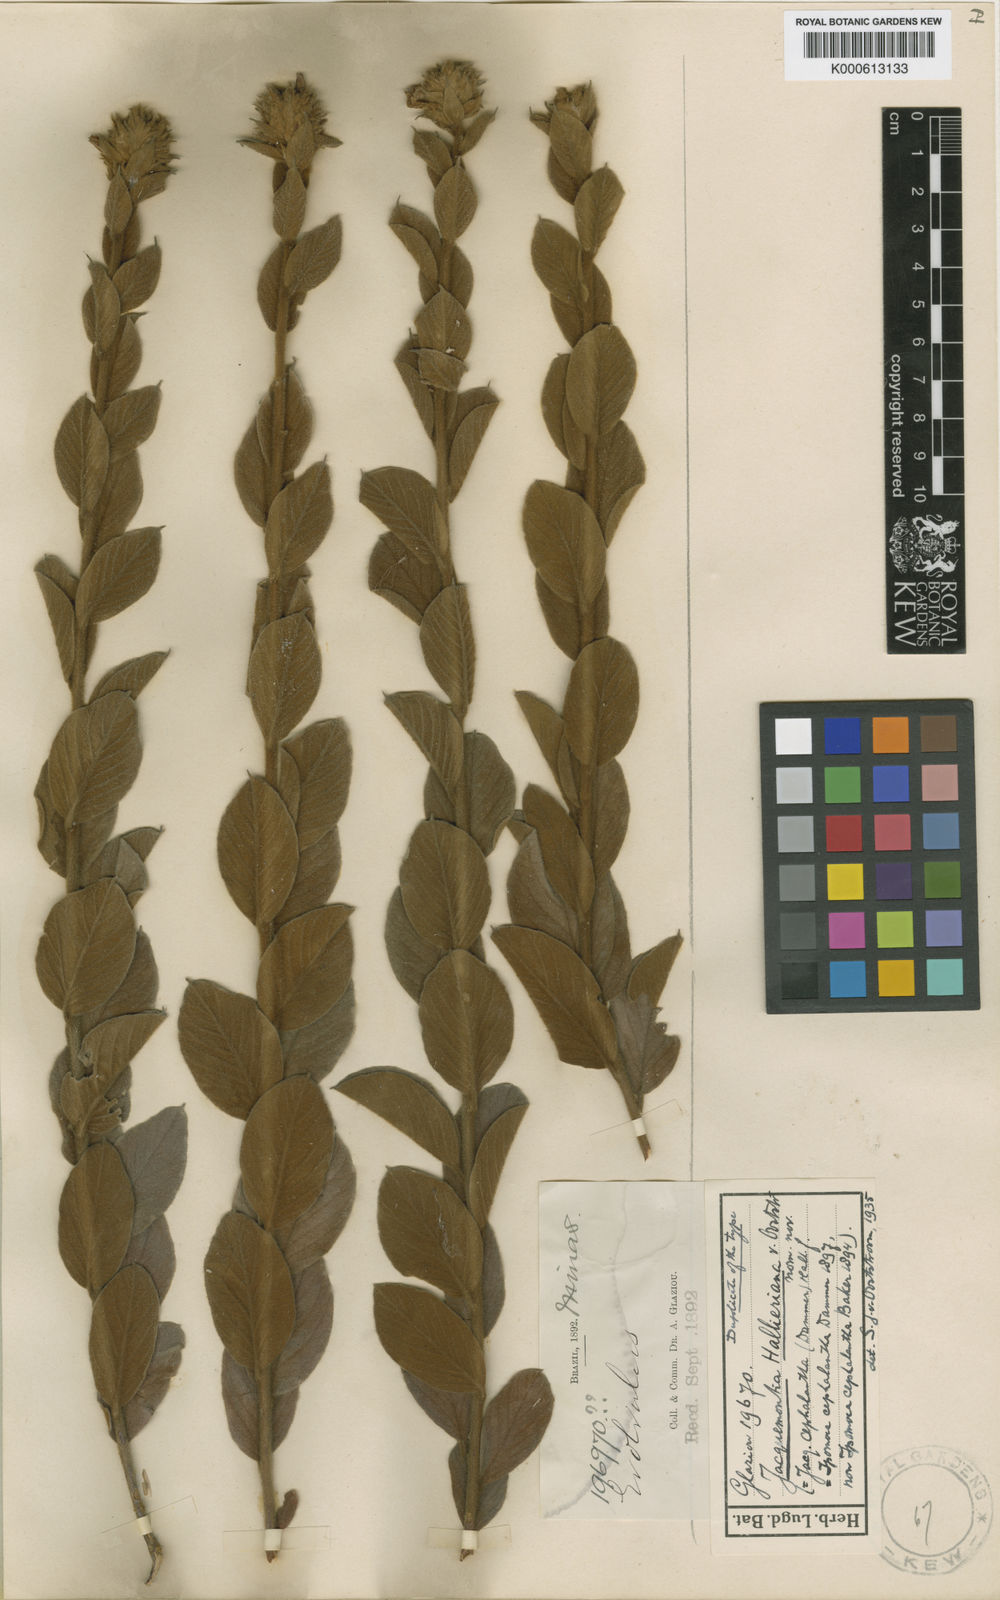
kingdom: Plantae
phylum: Tracheophyta
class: Magnoliopsida
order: Solanales
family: Convolvulaceae
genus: Jacquemontia
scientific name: Jacquemontia
